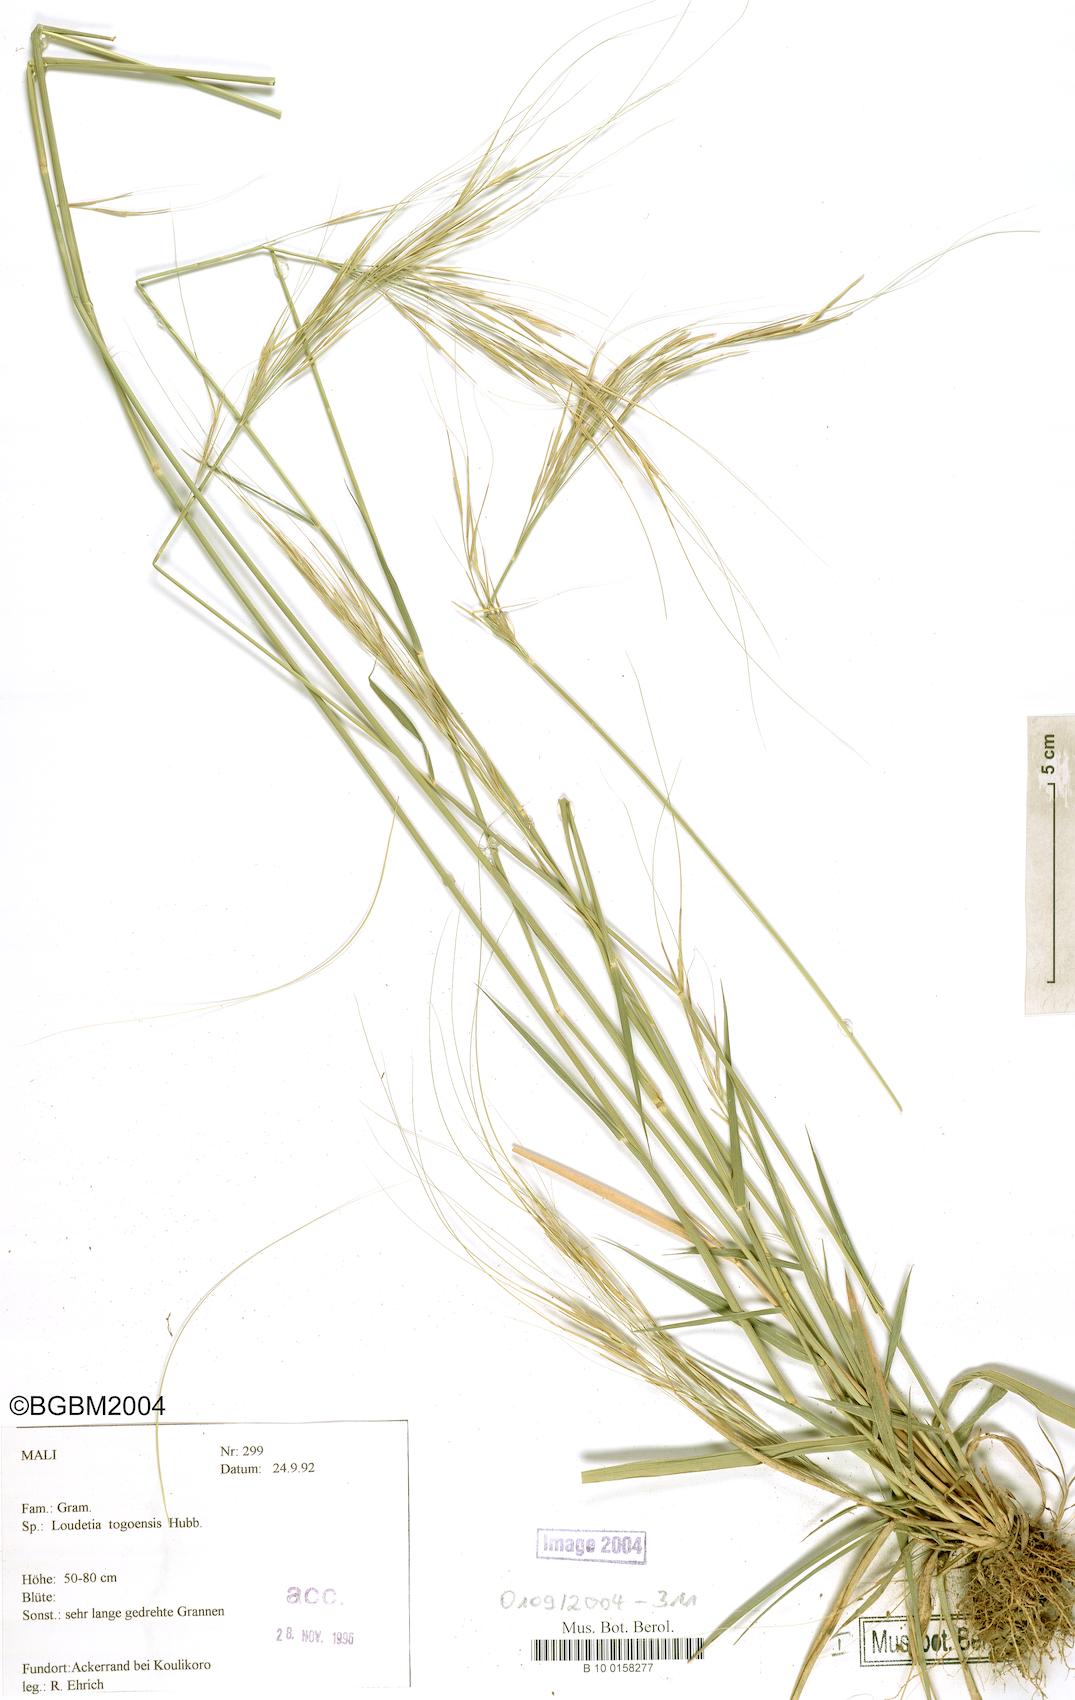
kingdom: Plantae
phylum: Tracheophyta
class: Liliopsida
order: Poales
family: Poaceae
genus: Loudetia
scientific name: Loudetia togoensis
